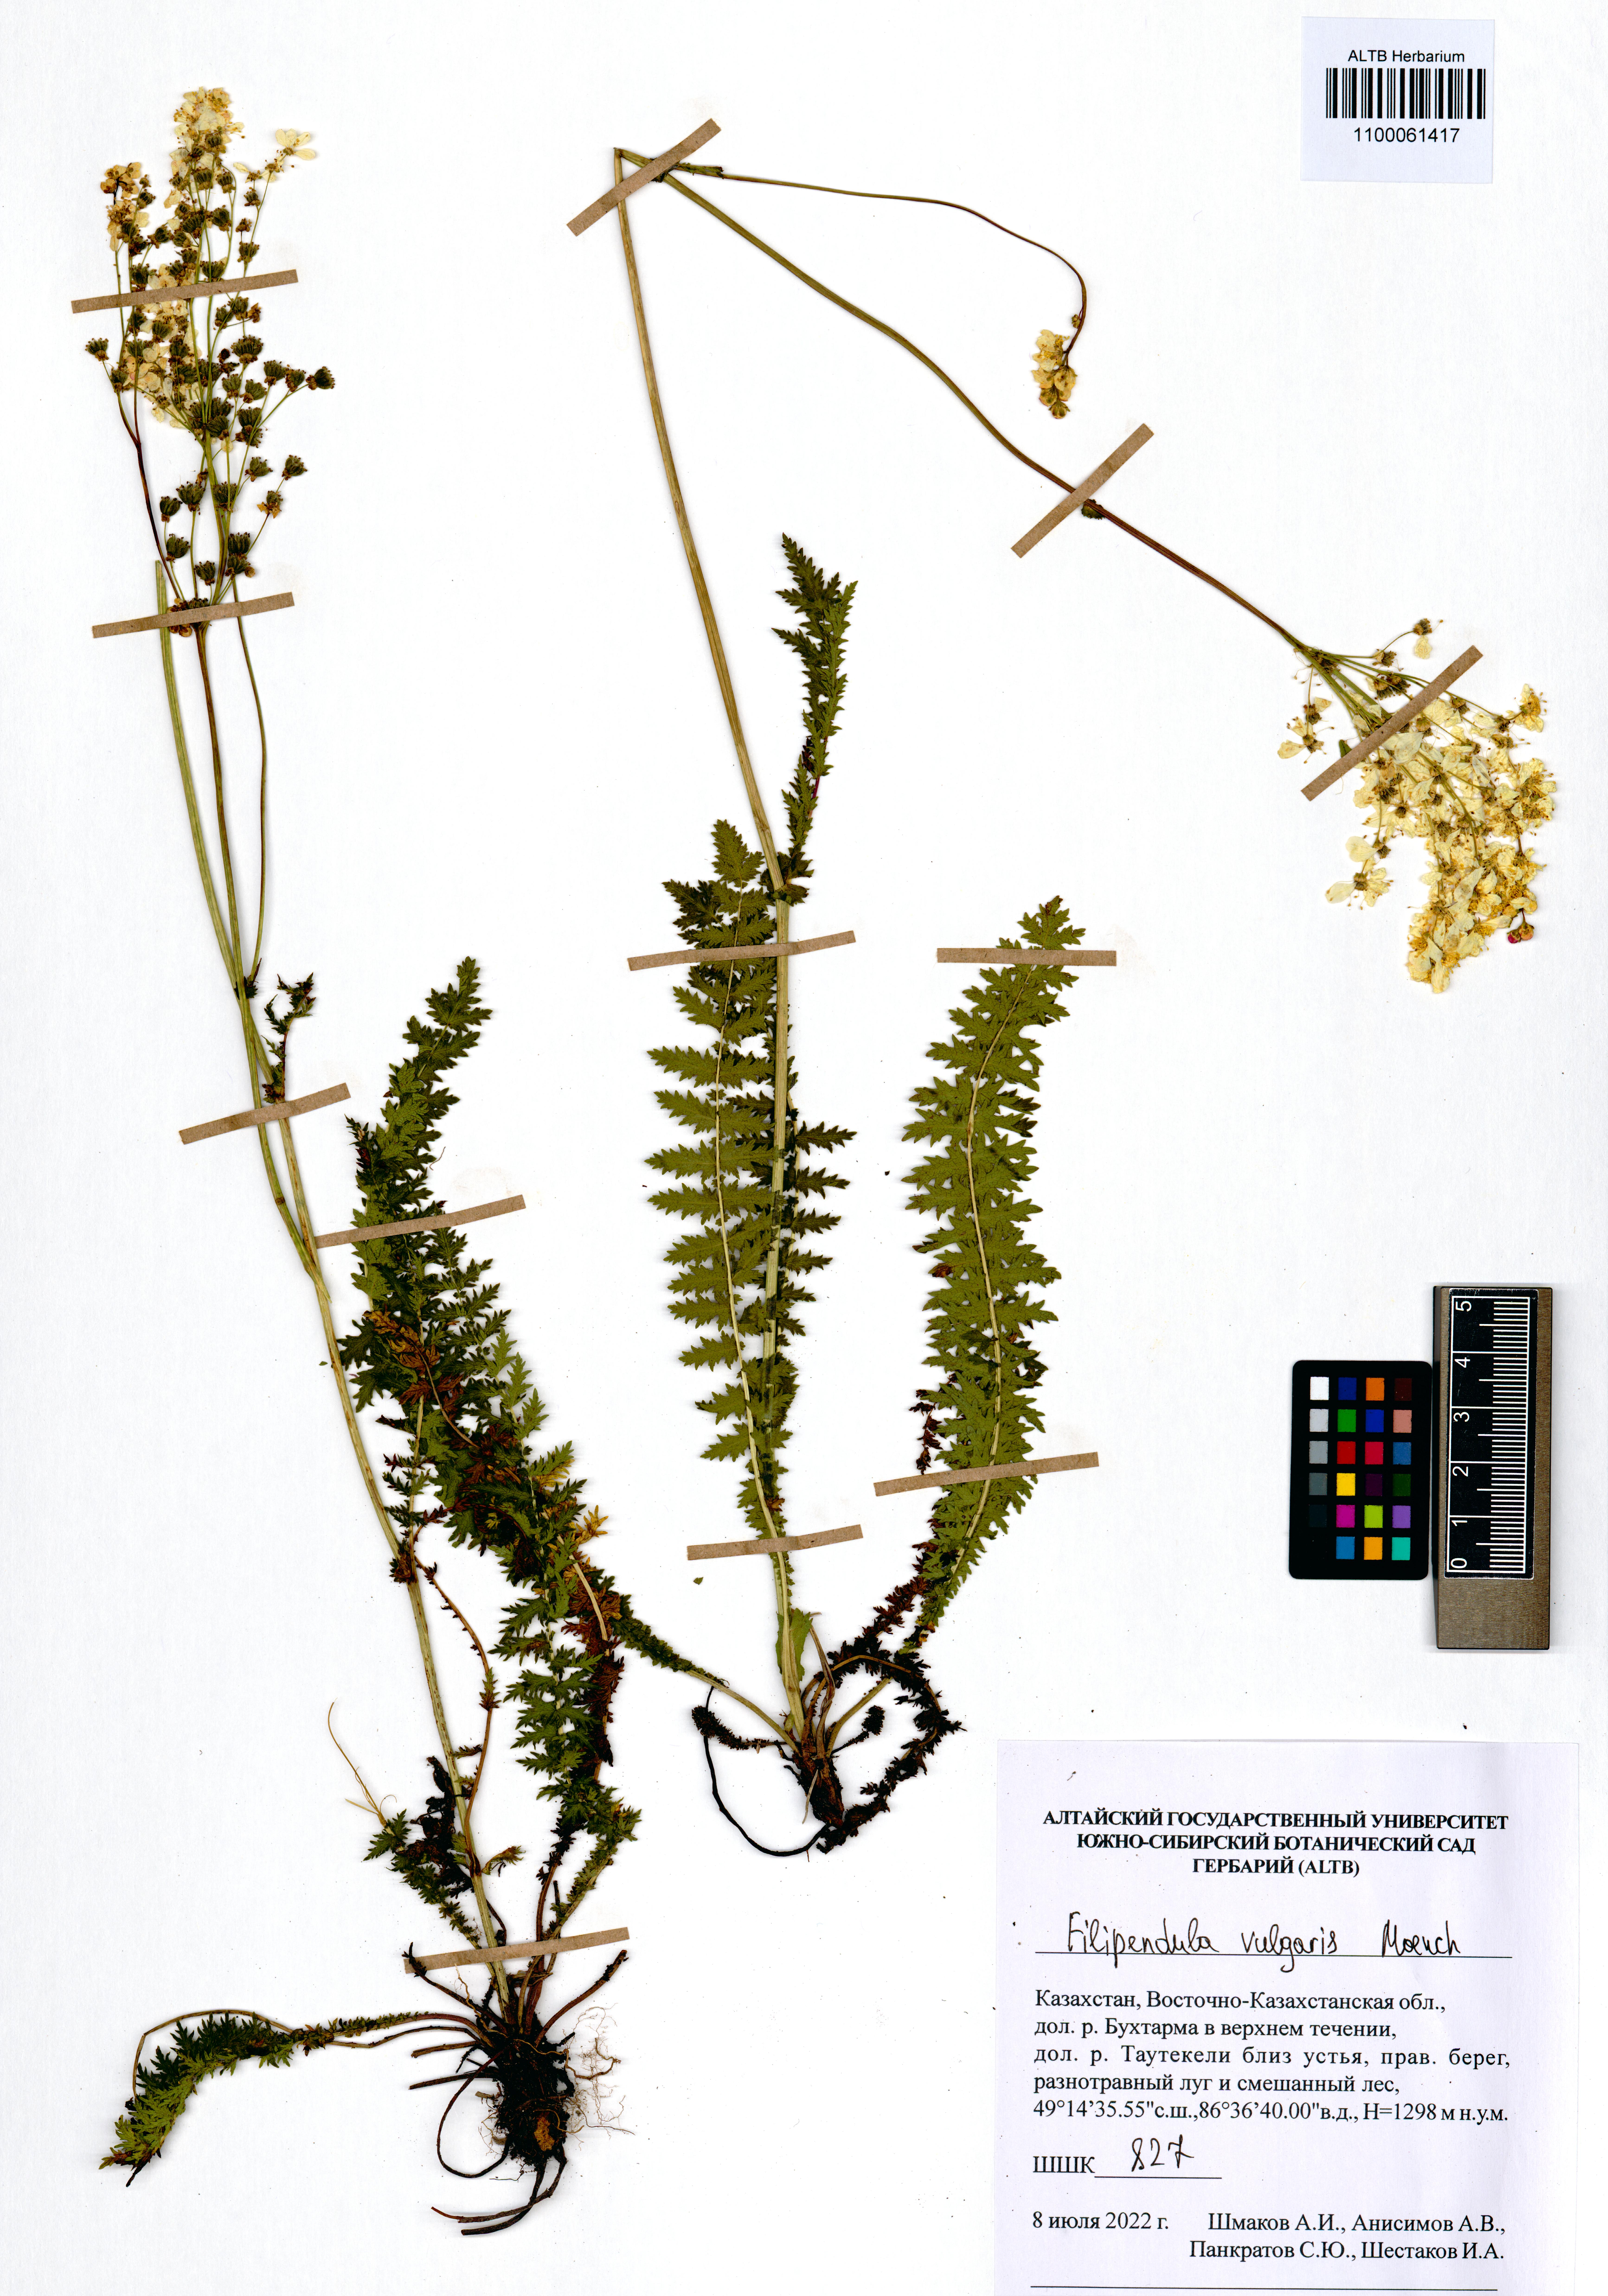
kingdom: Plantae
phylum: Tracheophyta
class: Magnoliopsida
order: Rosales
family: Rosaceae
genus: Filipendula
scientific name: Filipendula vulgaris
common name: Dropwort
